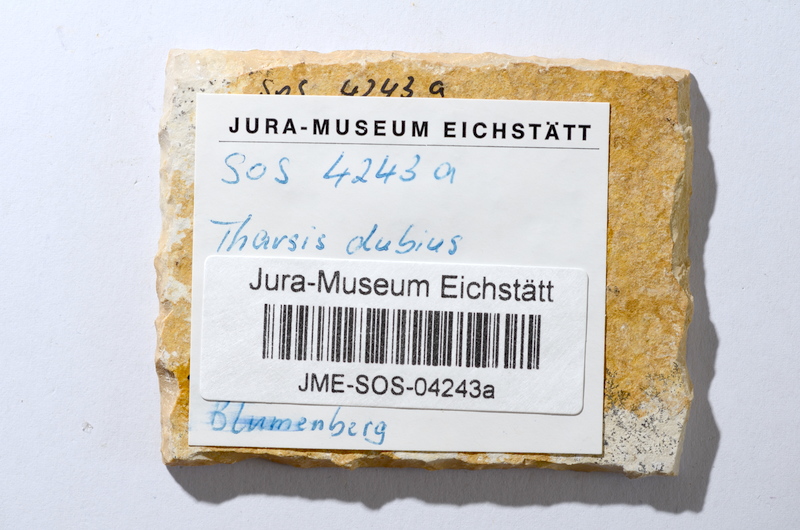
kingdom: Animalia
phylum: Chordata
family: Ascalaboidae
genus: Tharsis
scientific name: Tharsis dubius
